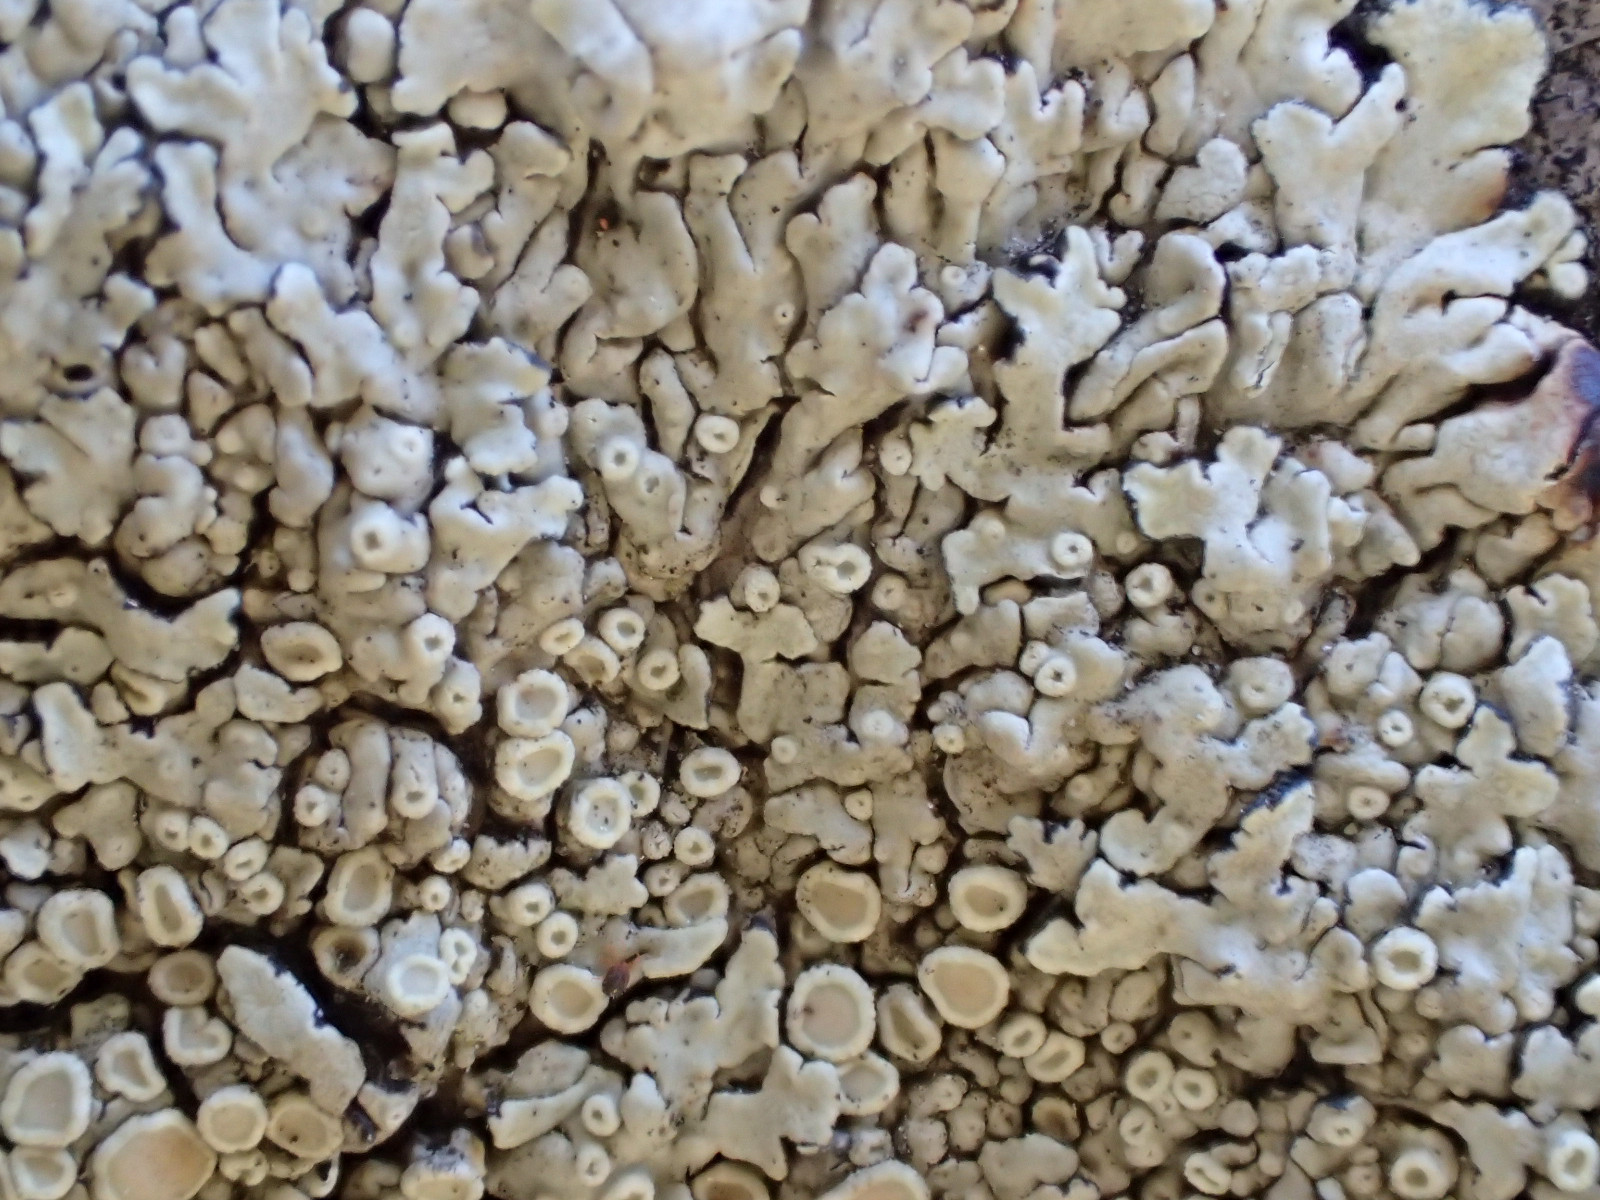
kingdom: Fungi
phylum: Ascomycota
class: Lecanoromycetes
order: Lecanorales
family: Lecanoraceae
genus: Protoparmeliopsis
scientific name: Protoparmeliopsis muralis
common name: randfliget kantskivelav
